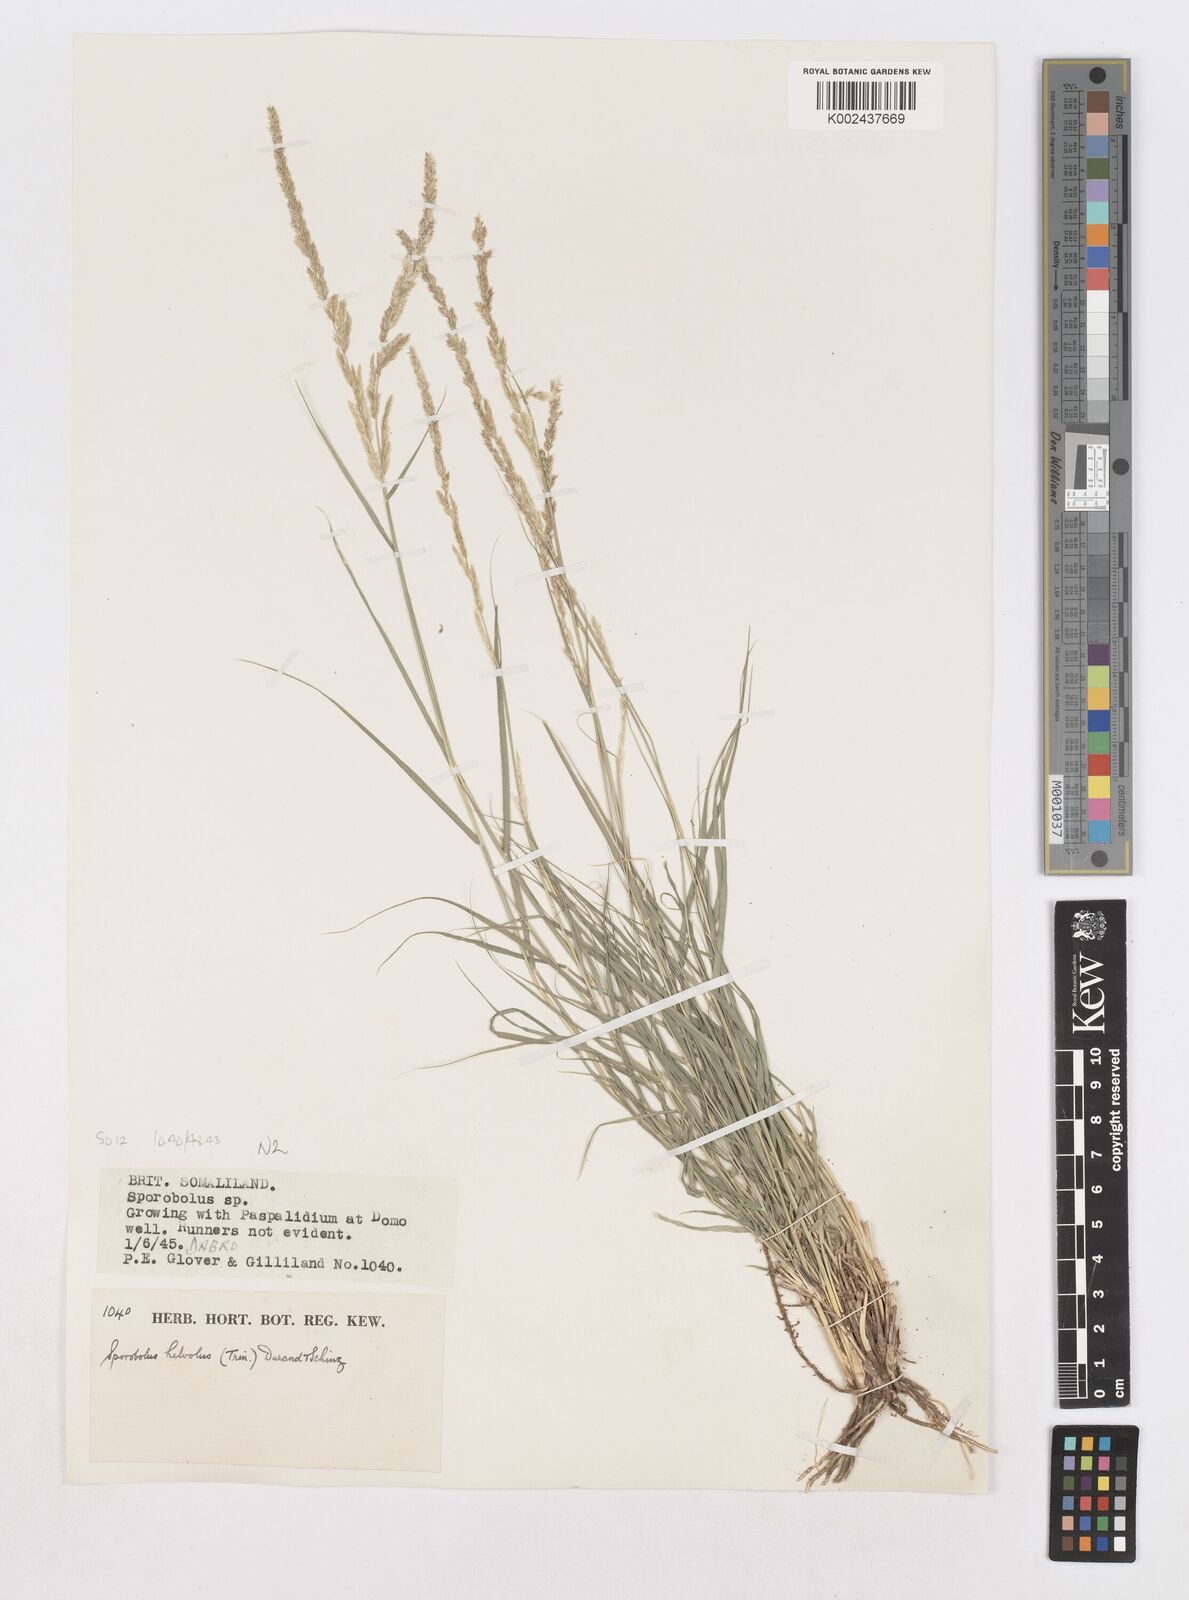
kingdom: Plantae
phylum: Tracheophyta
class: Liliopsida
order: Poales
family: Poaceae
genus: Sporobolus
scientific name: Sporobolus helvolus
